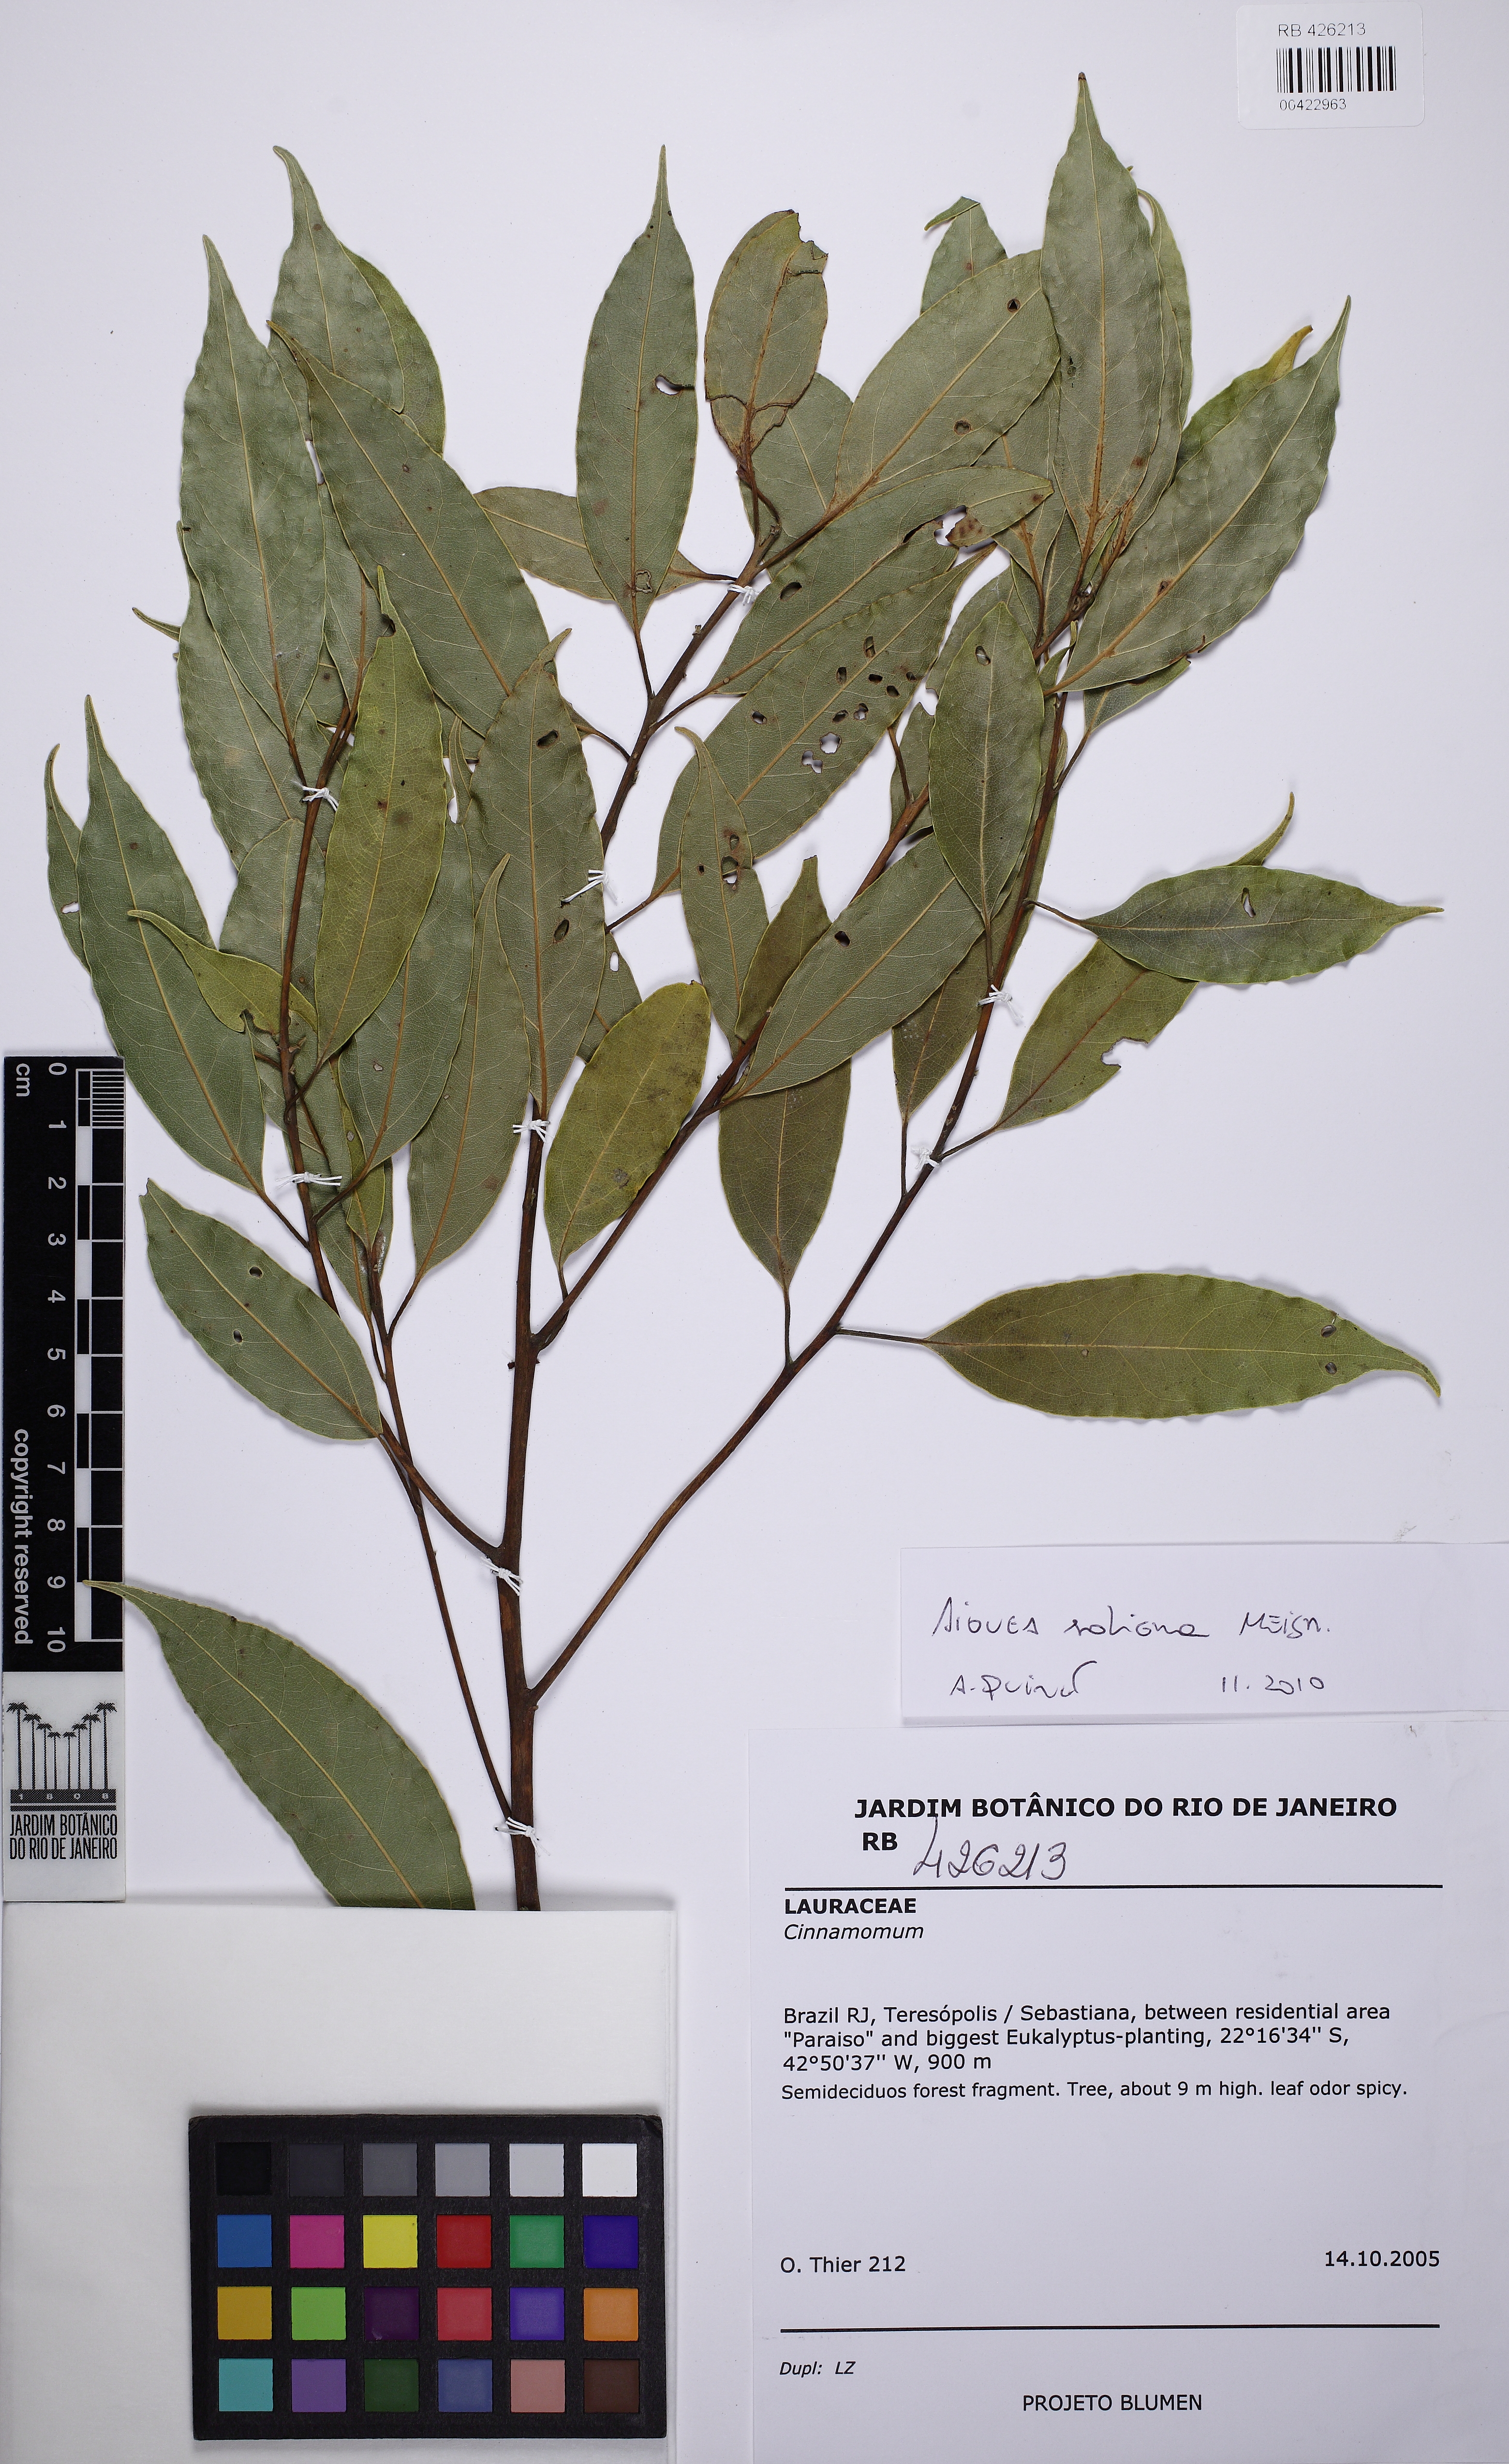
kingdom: Plantae
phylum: Tracheophyta
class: Magnoliopsida
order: Laurales
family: Lauraceae
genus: Aiouea
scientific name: Aiouea saligna
